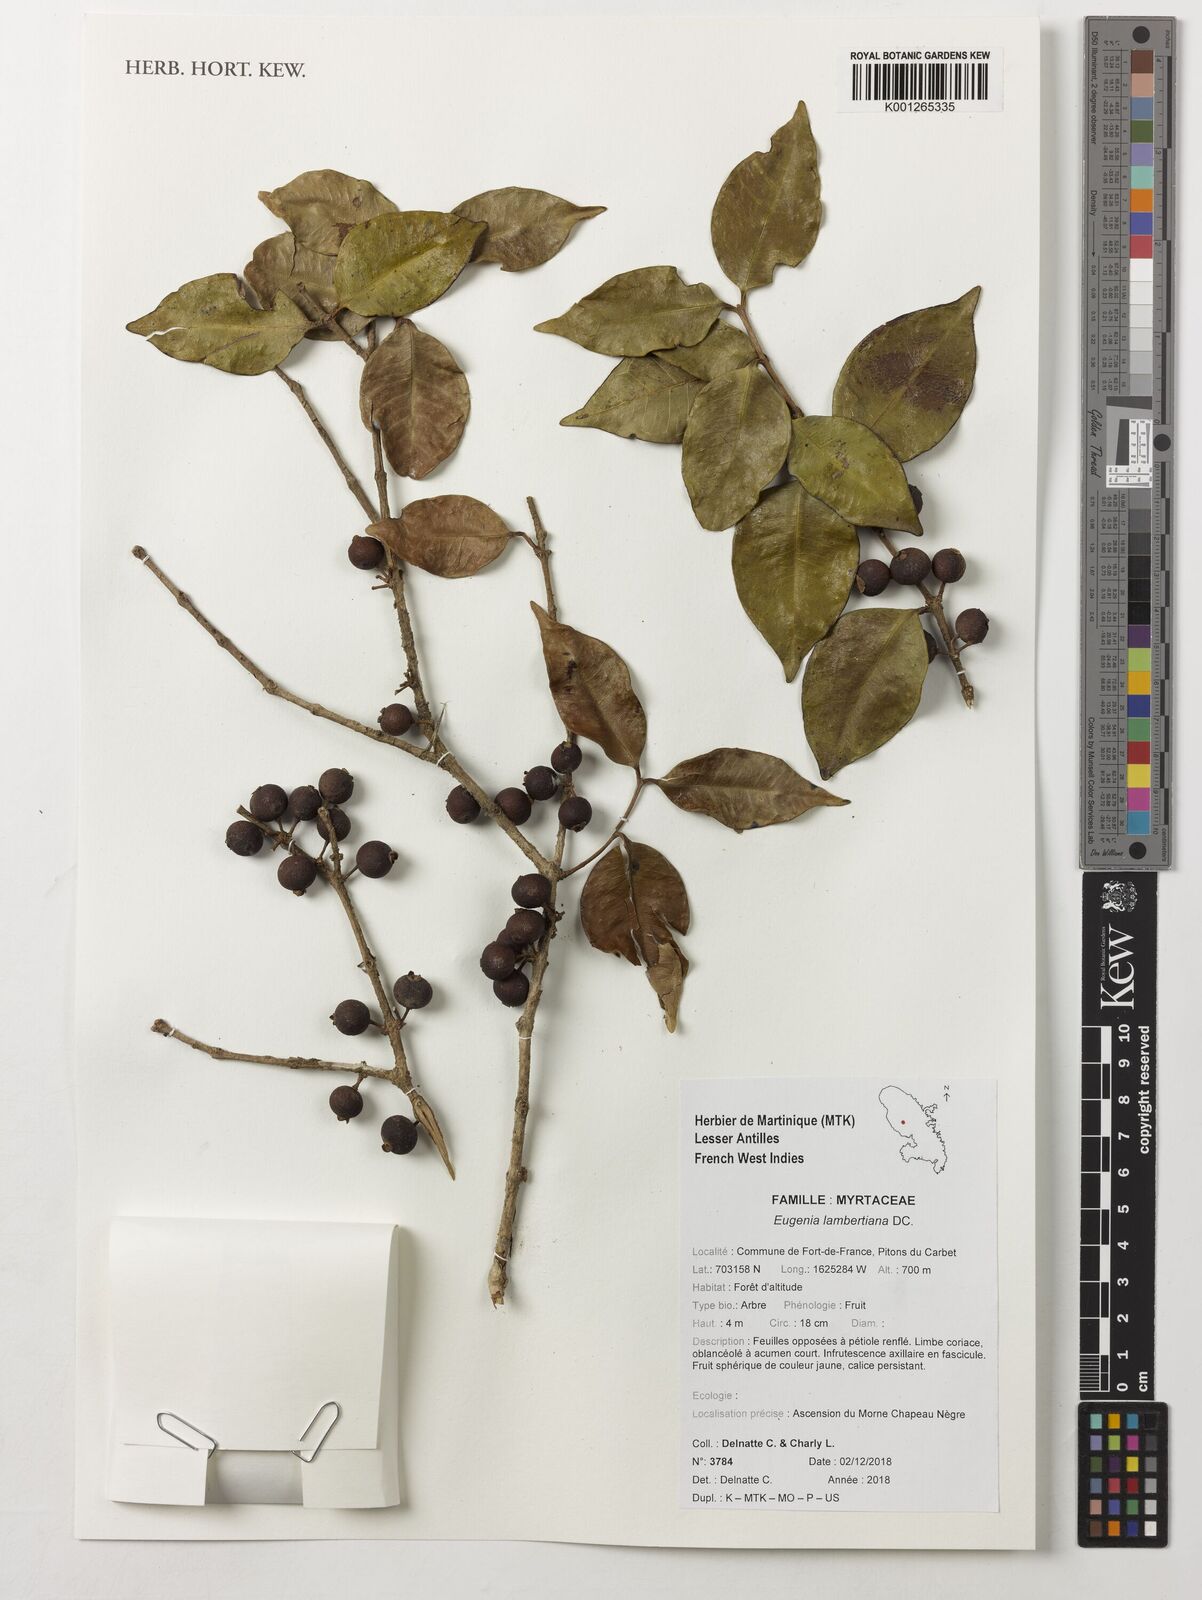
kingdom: Plantae
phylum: Tracheophyta
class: Magnoliopsida
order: Myrtales
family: Myrtaceae
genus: Eugenia
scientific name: Eugenia lambertiana
